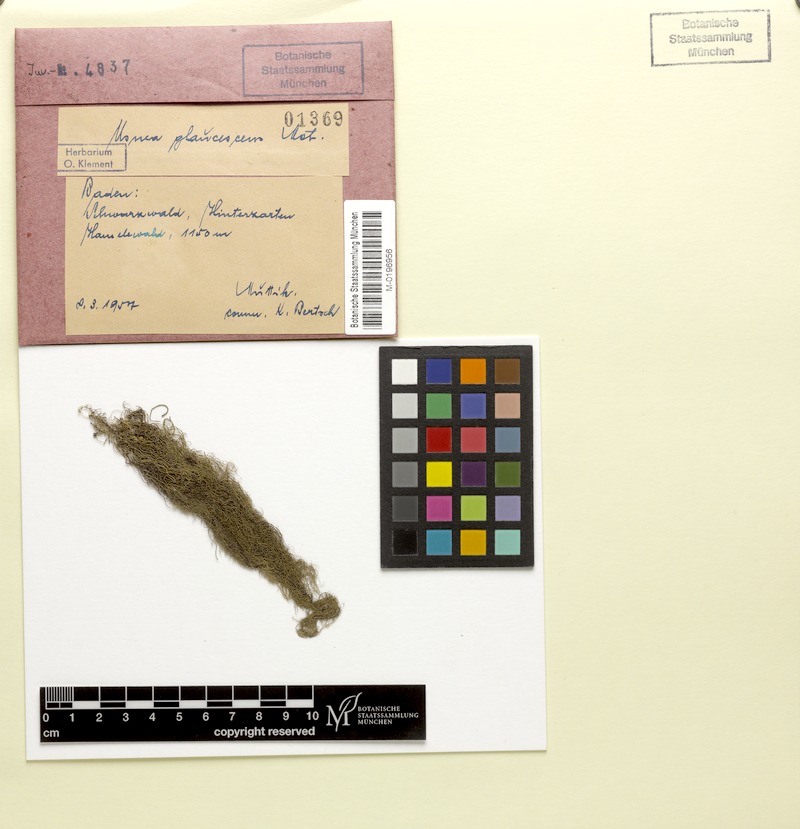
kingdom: Fungi
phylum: Ascomycota
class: Lecanoromycetes
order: Lecanorales
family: Parmeliaceae
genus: Usnea
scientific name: Usnea hirta
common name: Bristly beard lichen
